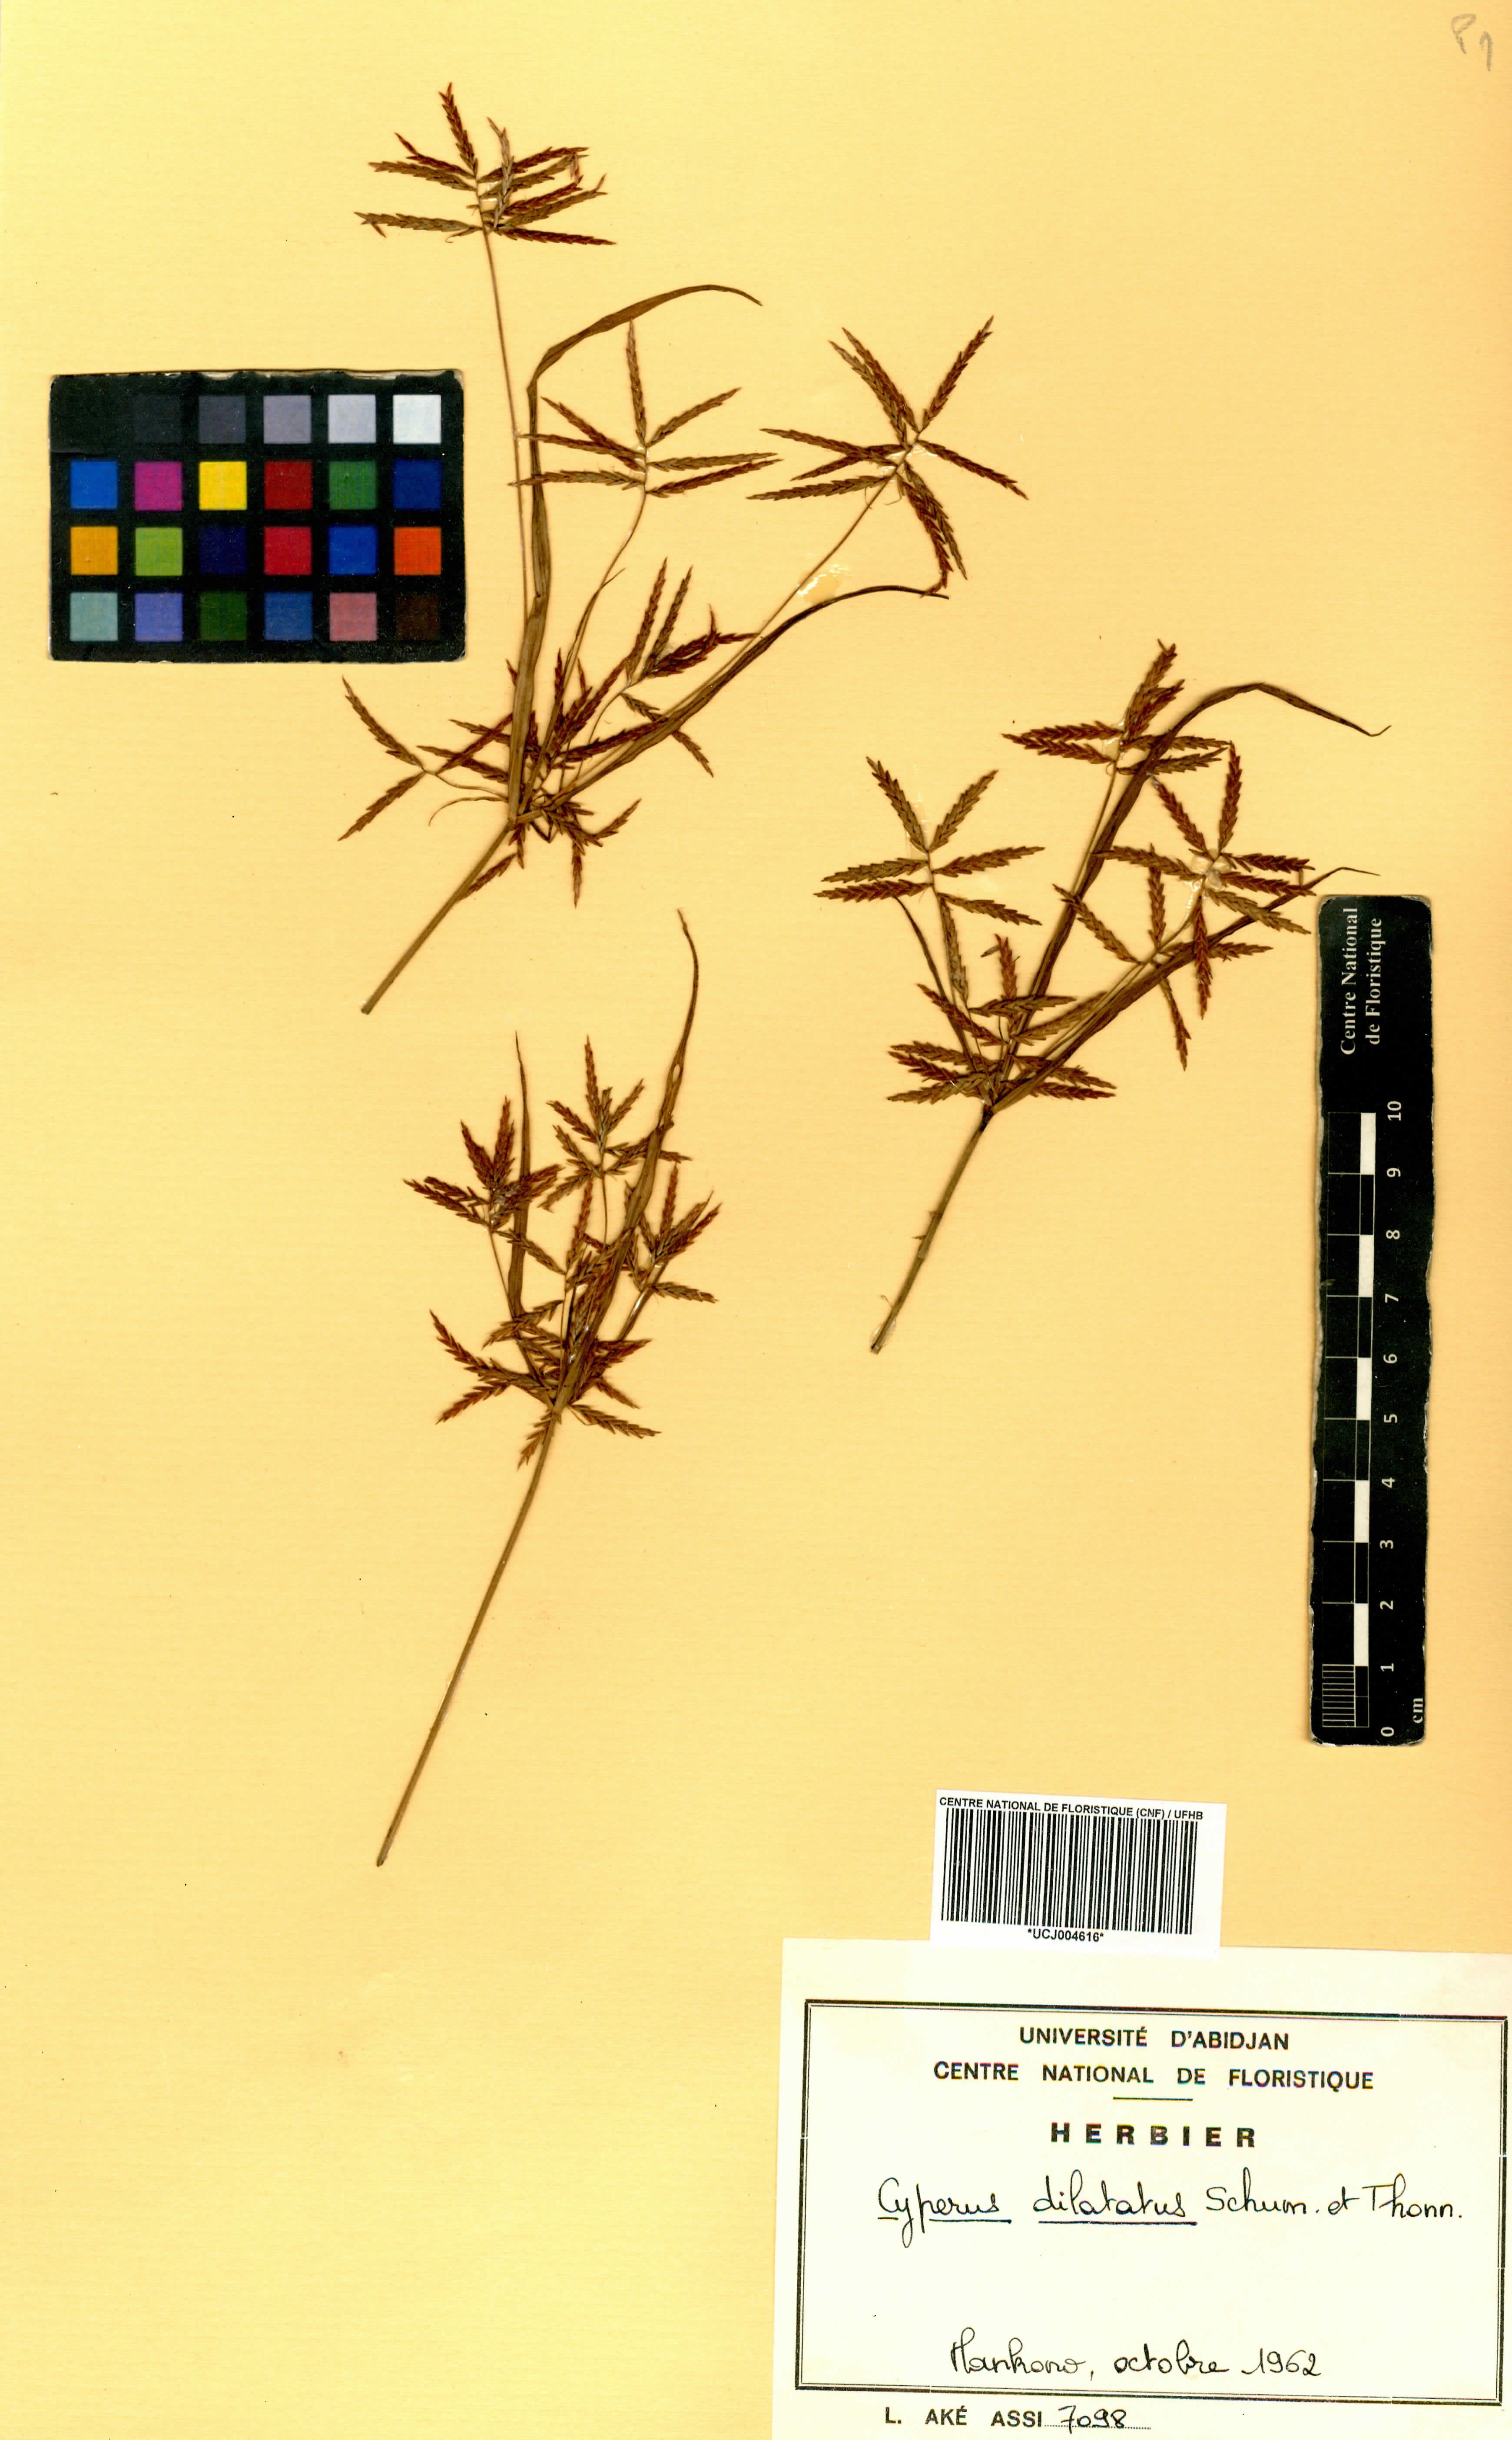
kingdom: Plantae
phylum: Tracheophyta
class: Liliopsida
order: Poales
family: Cyperaceae
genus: Cyperus
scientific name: Cyperus dilatatus
